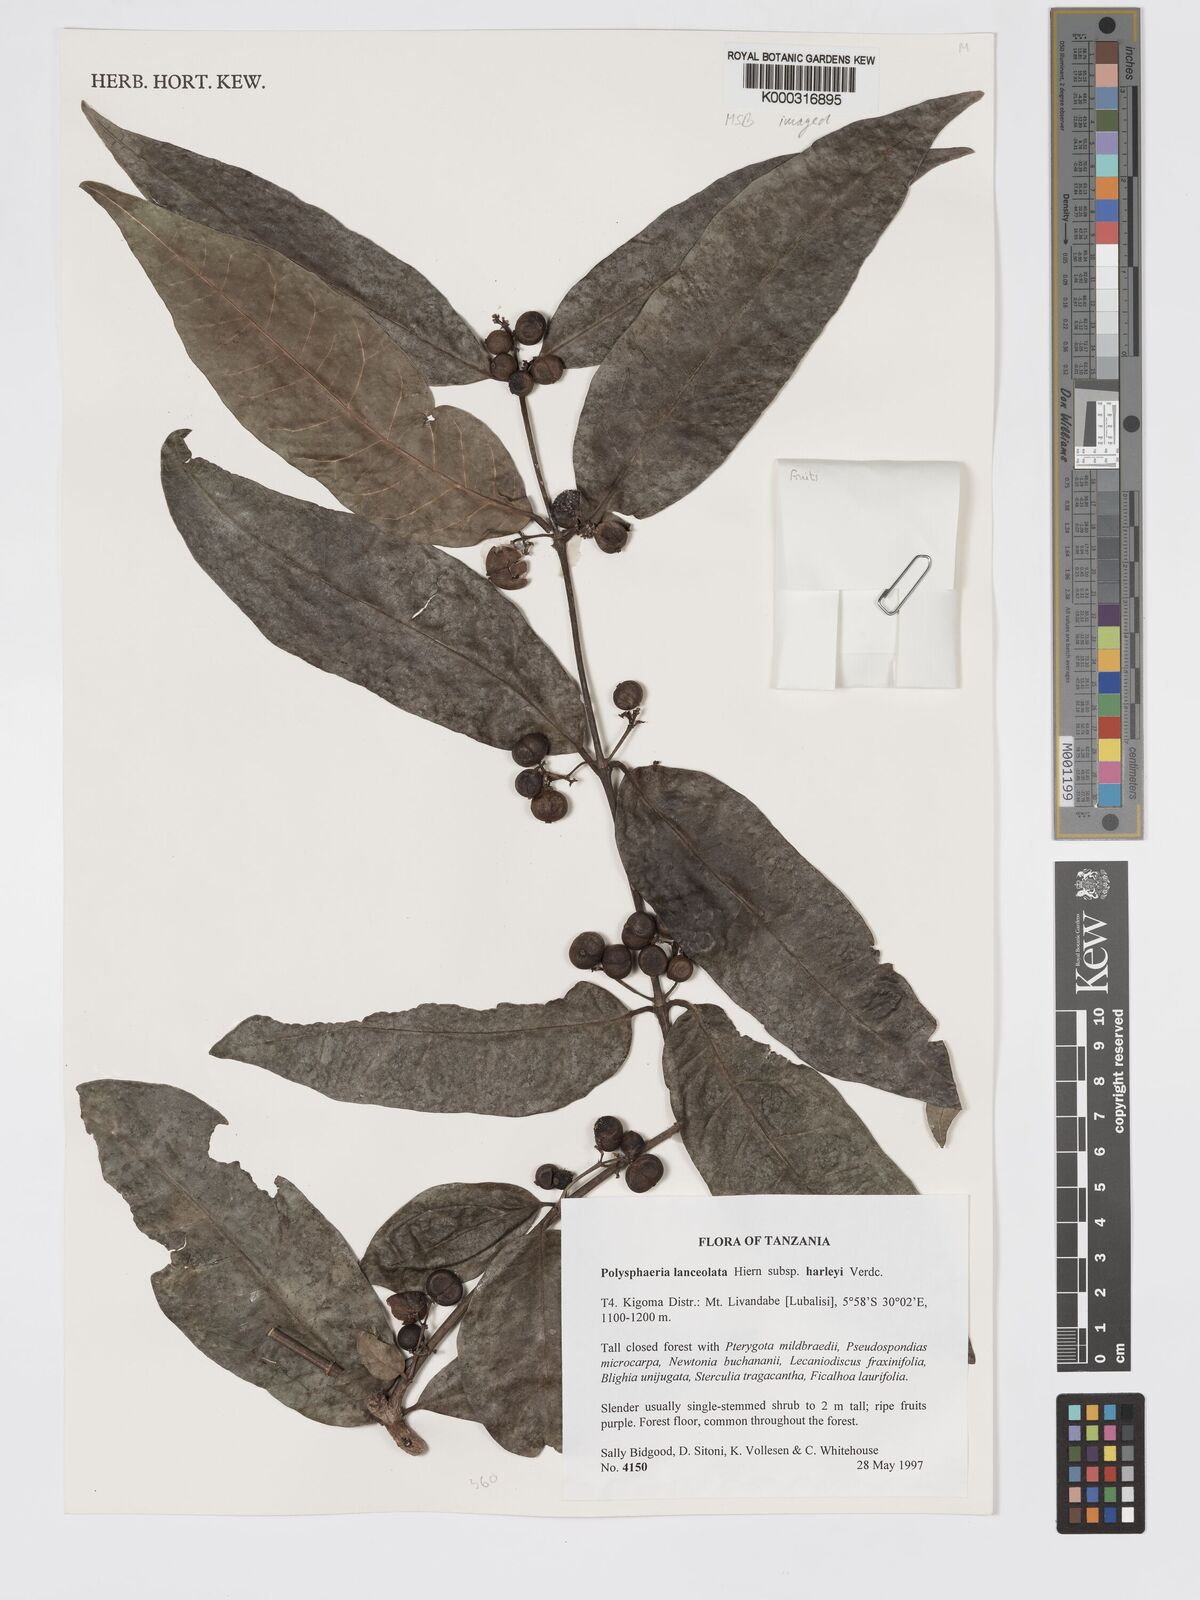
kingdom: Plantae
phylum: Tracheophyta
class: Magnoliopsida
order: Gentianales
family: Rubiaceae
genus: Polysphaeria
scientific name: Polysphaeria lanceolata
